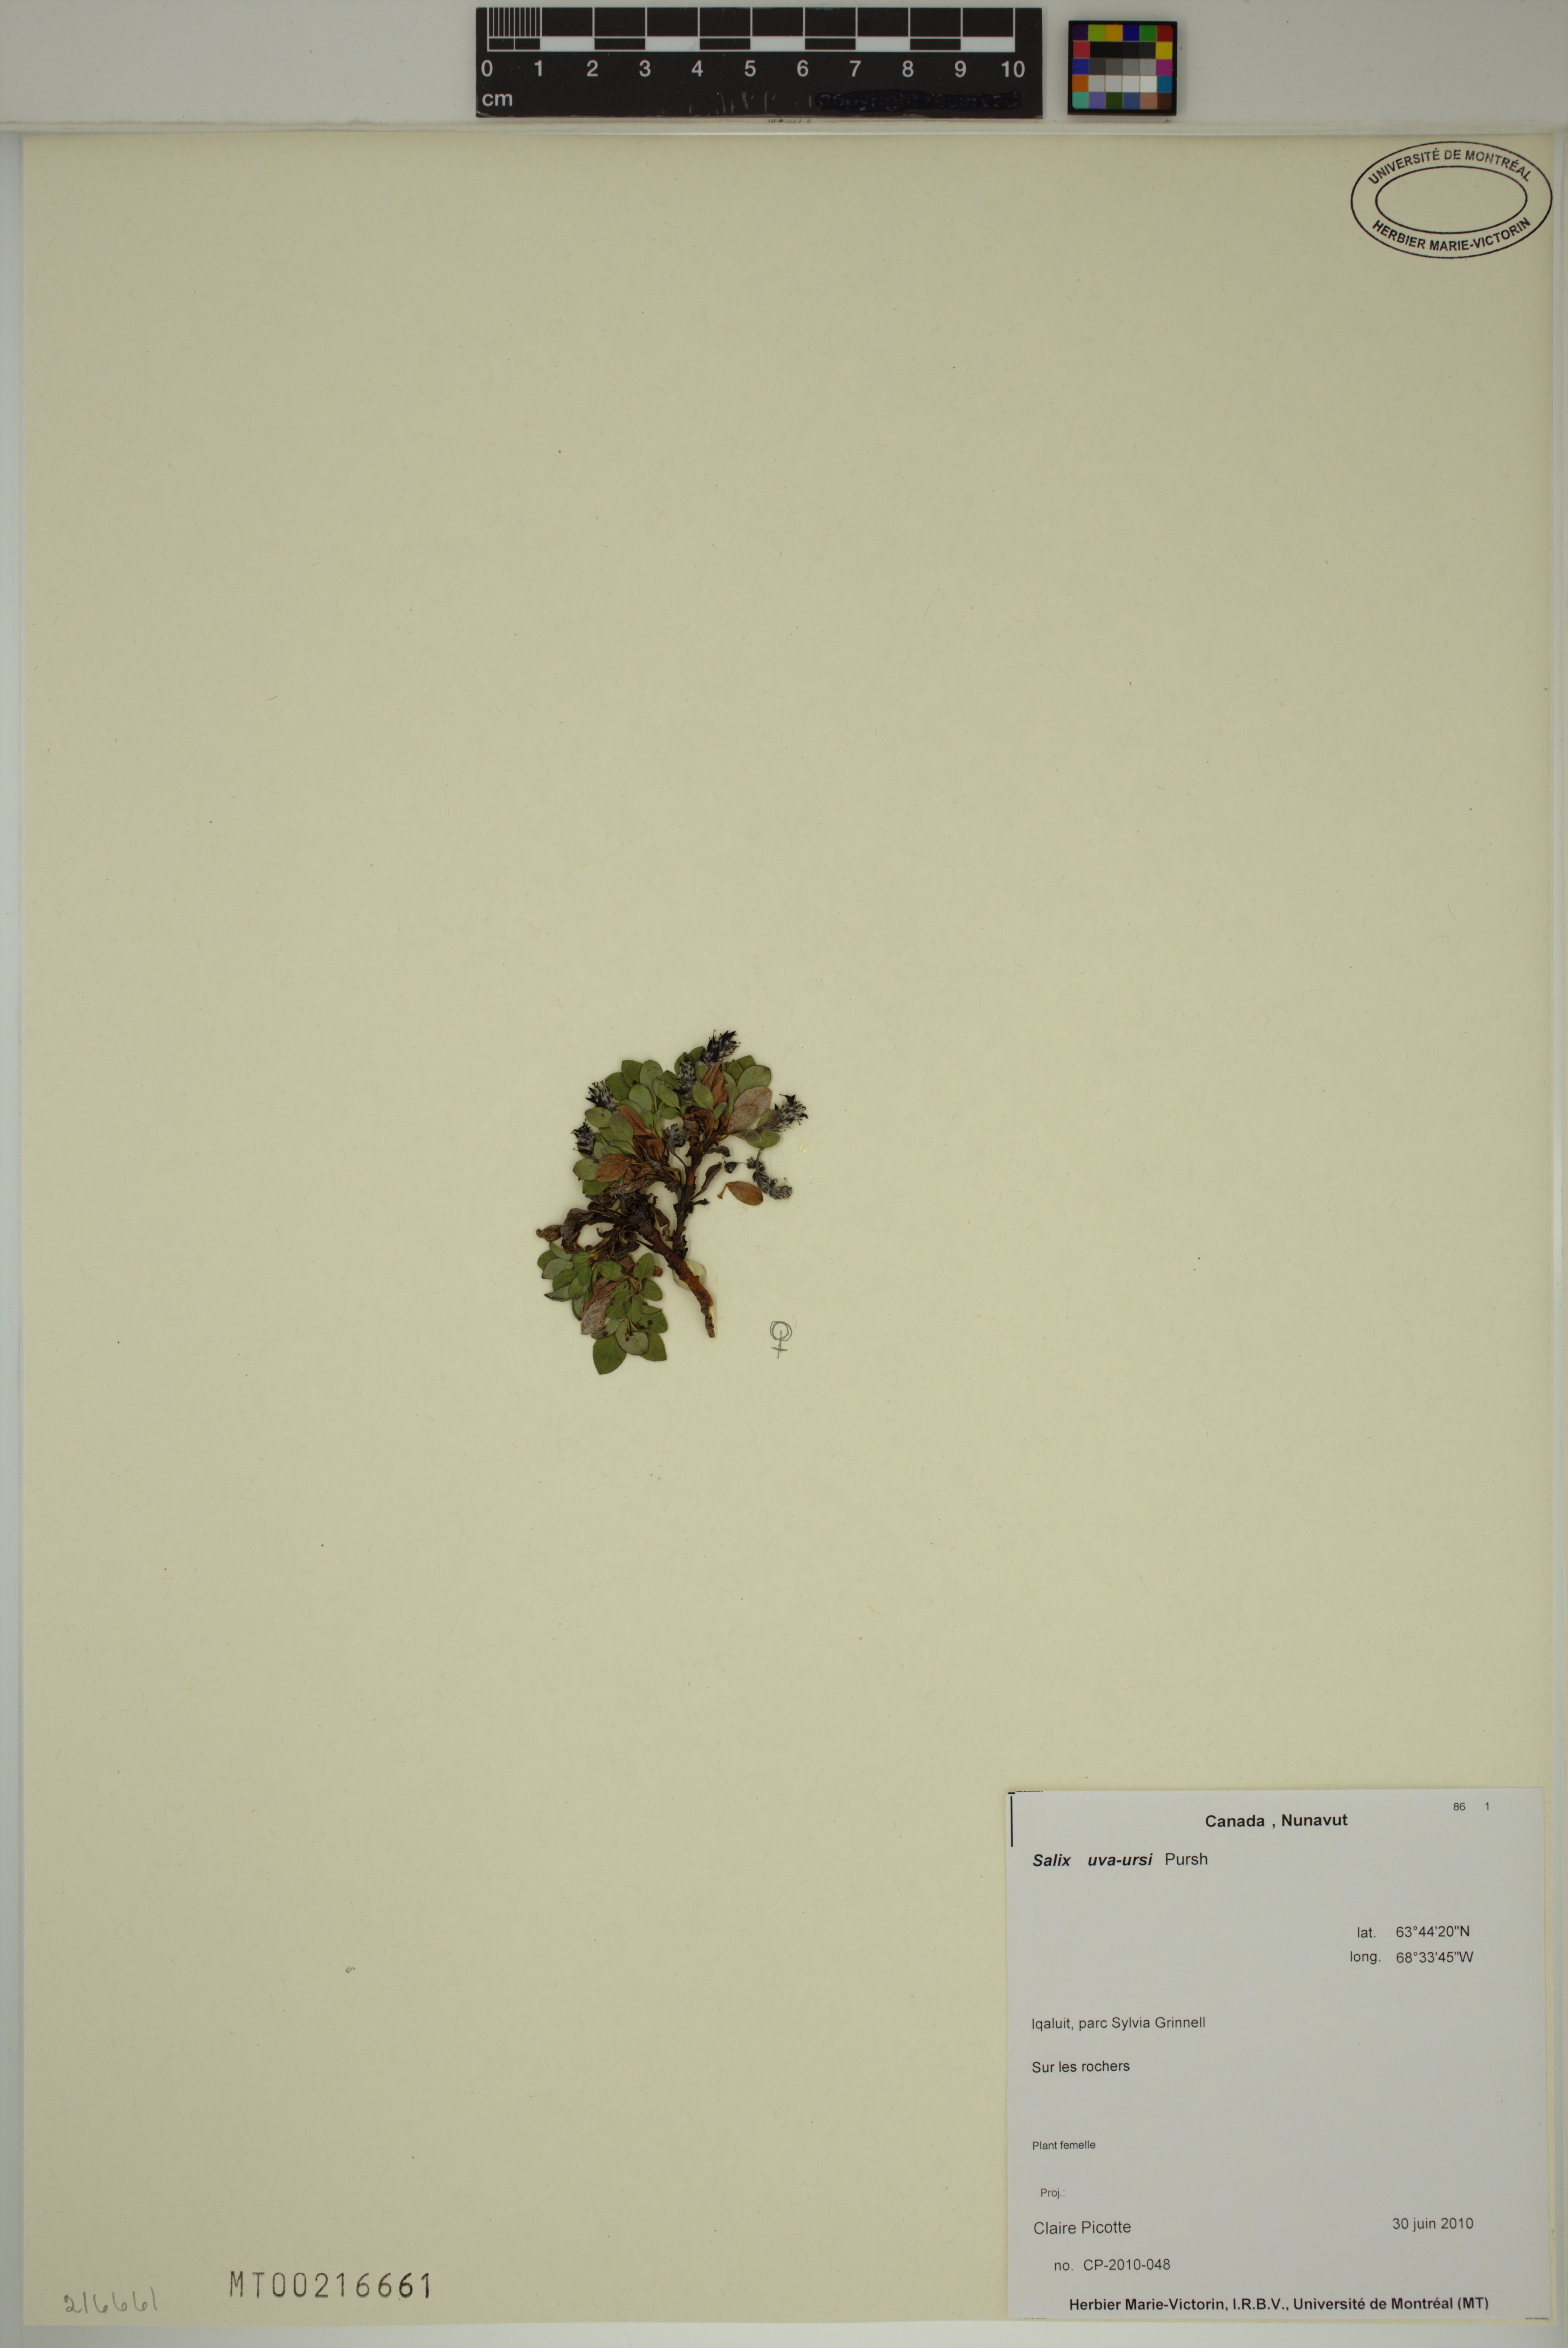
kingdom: Plantae
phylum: Tracheophyta
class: Magnoliopsida
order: Malpighiales
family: Salicaceae
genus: Salix
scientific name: Salix uva-ursi
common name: Bearberry willow
